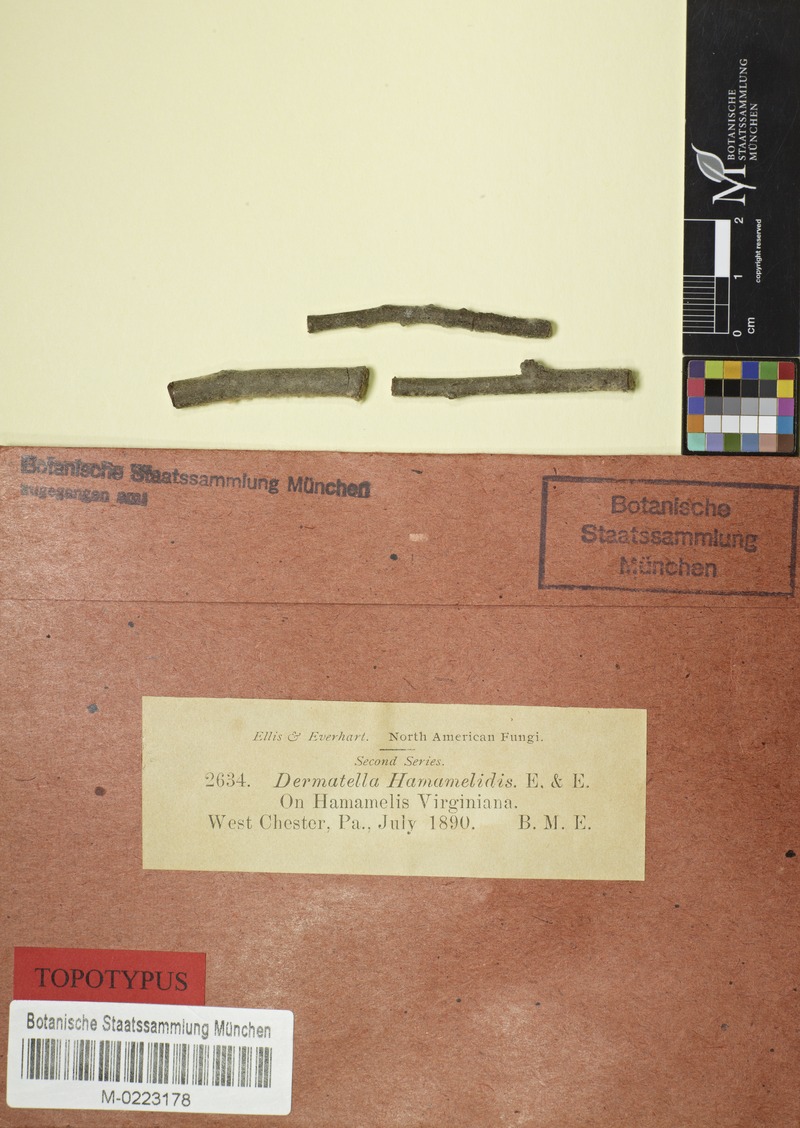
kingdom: Fungi
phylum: Ascomycota
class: Leotiomycetes
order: Helotiales
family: Dermateaceae
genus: Dermea
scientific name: Dermea hamamelidis
